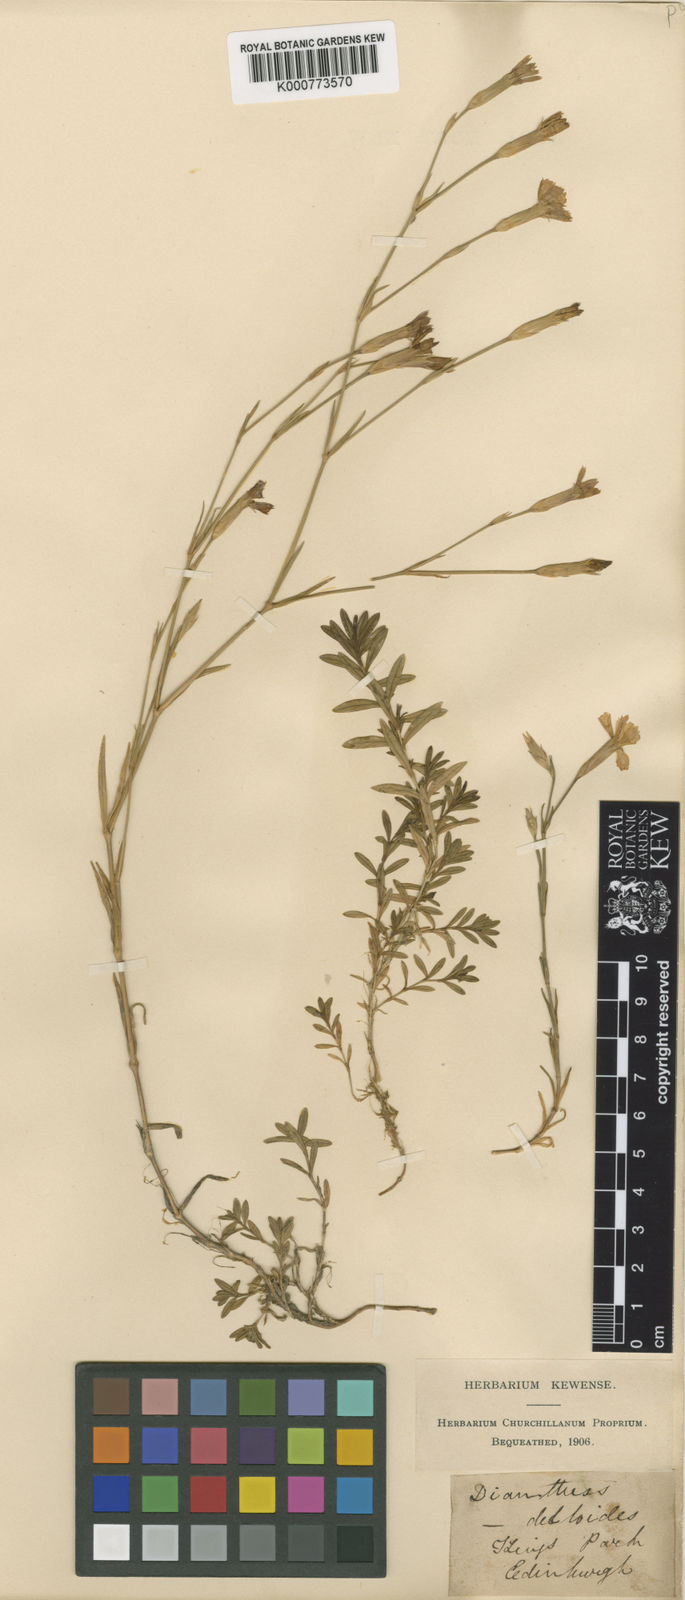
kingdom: Plantae
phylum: Tracheophyta
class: Magnoliopsida
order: Caryophyllales
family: Caryophyllaceae
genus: Dianthus
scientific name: Dianthus deltoides
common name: Maiden pink
